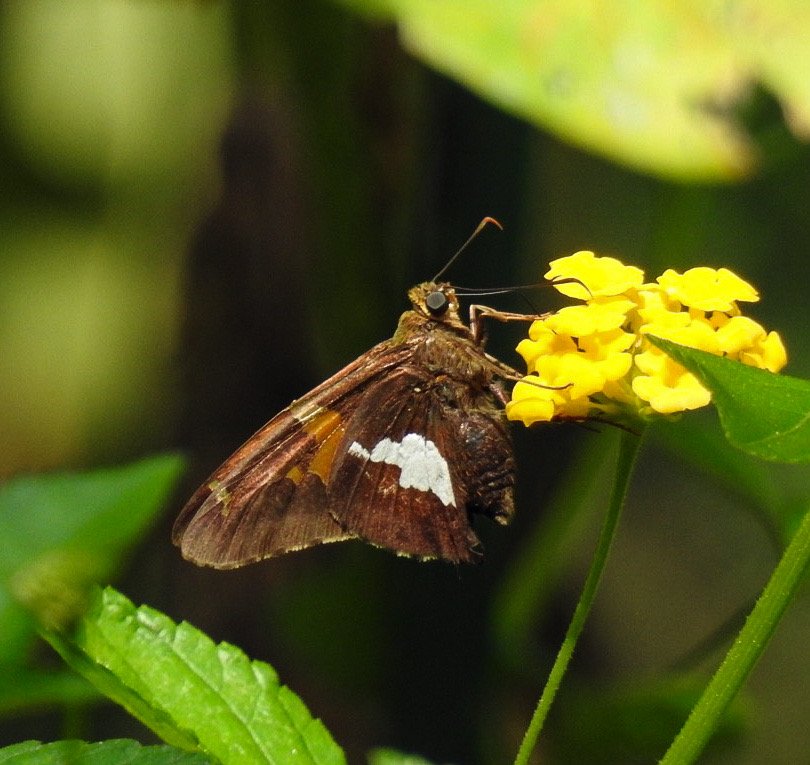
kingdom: Animalia
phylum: Arthropoda
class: Insecta
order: Lepidoptera
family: Hesperiidae
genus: Epargyreus
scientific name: Epargyreus clarus
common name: Silver-spotted Skipper
